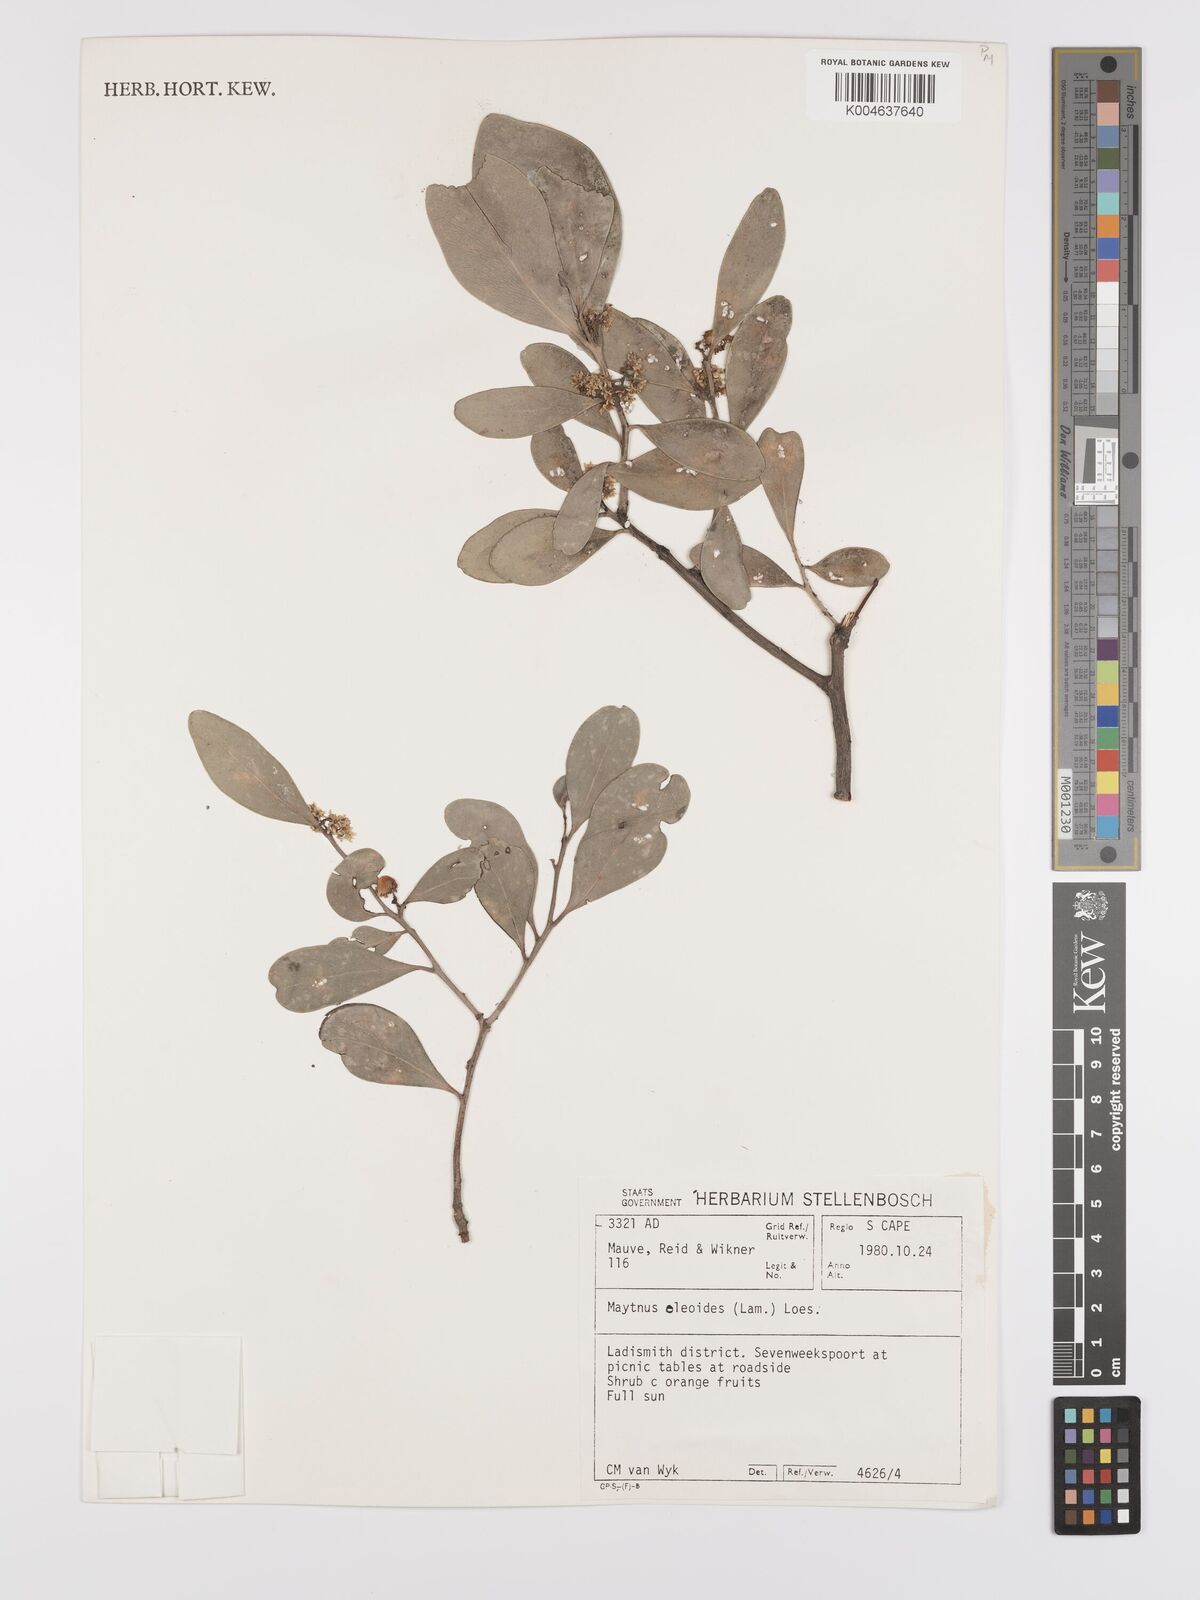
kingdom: Plantae
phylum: Tracheophyta
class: Magnoliopsida
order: Celastrales
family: Celastraceae
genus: Gymnosporia
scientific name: Gymnosporia laurina
